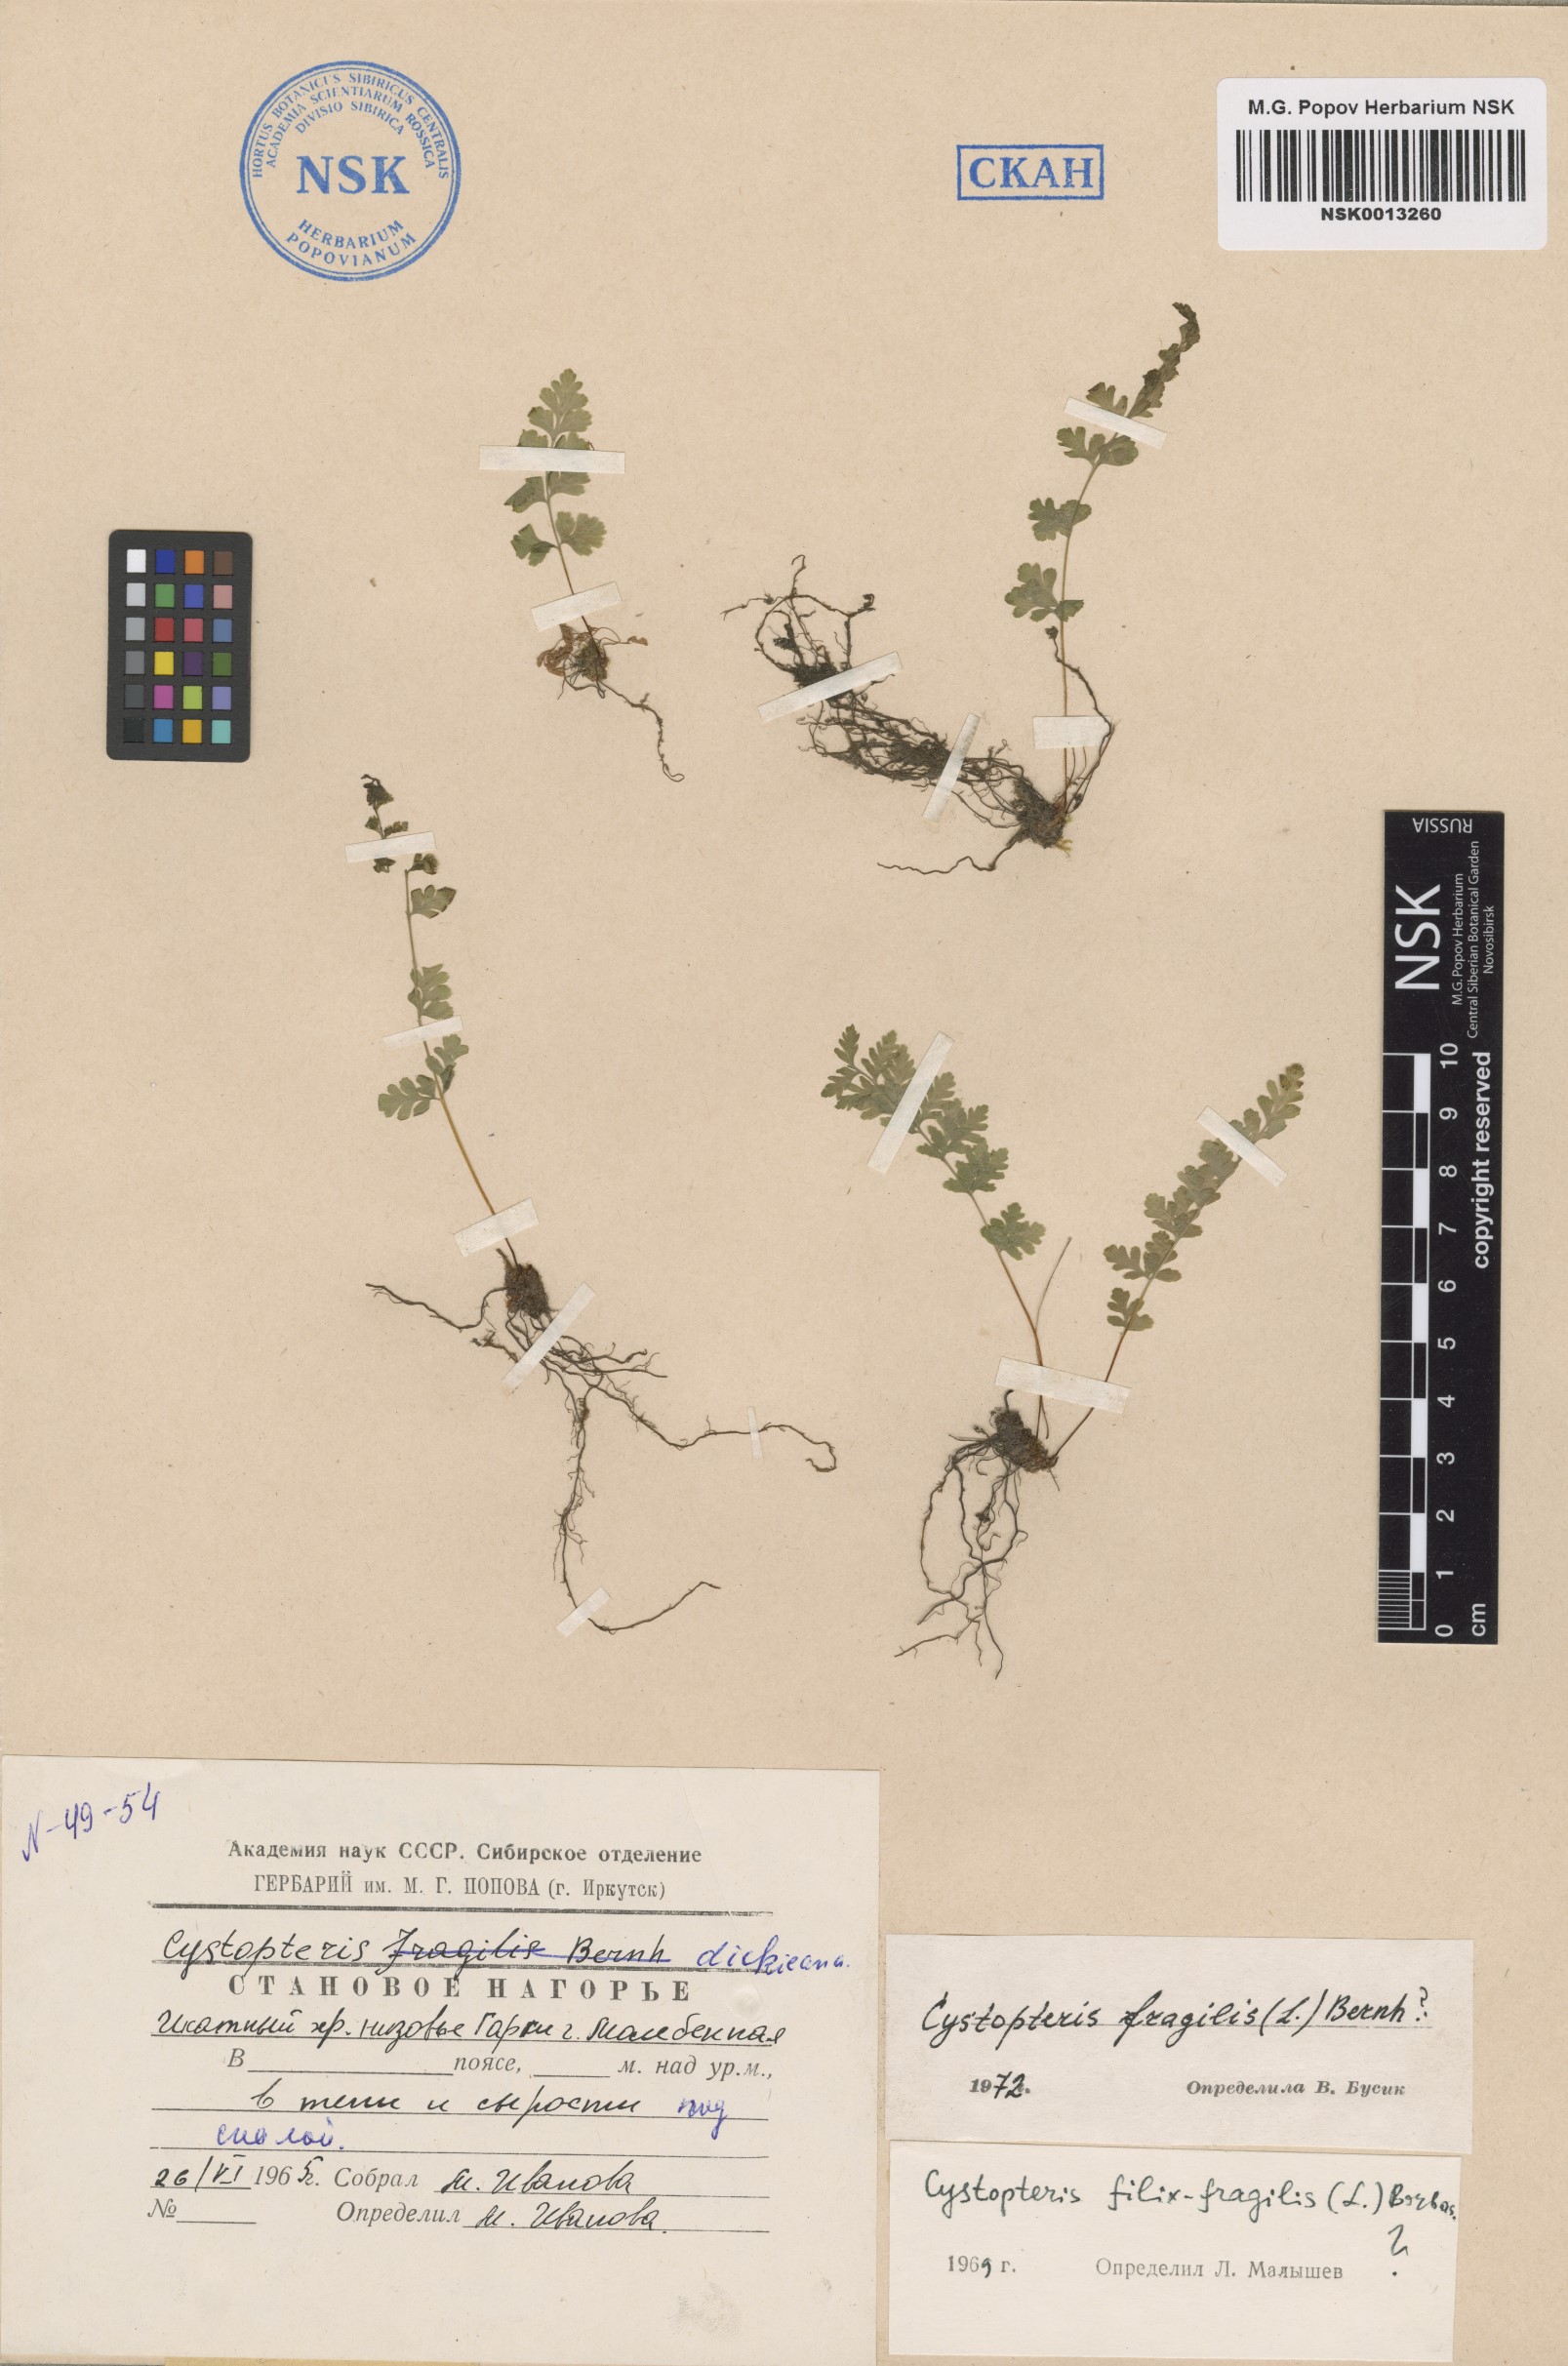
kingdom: Plantae
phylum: Tracheophyta
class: Polypodiopsida
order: Polypodiales
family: Cystopteridaceae
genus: Cystopteris
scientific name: Cystopteris fragilis
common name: Brittle bladder fern
